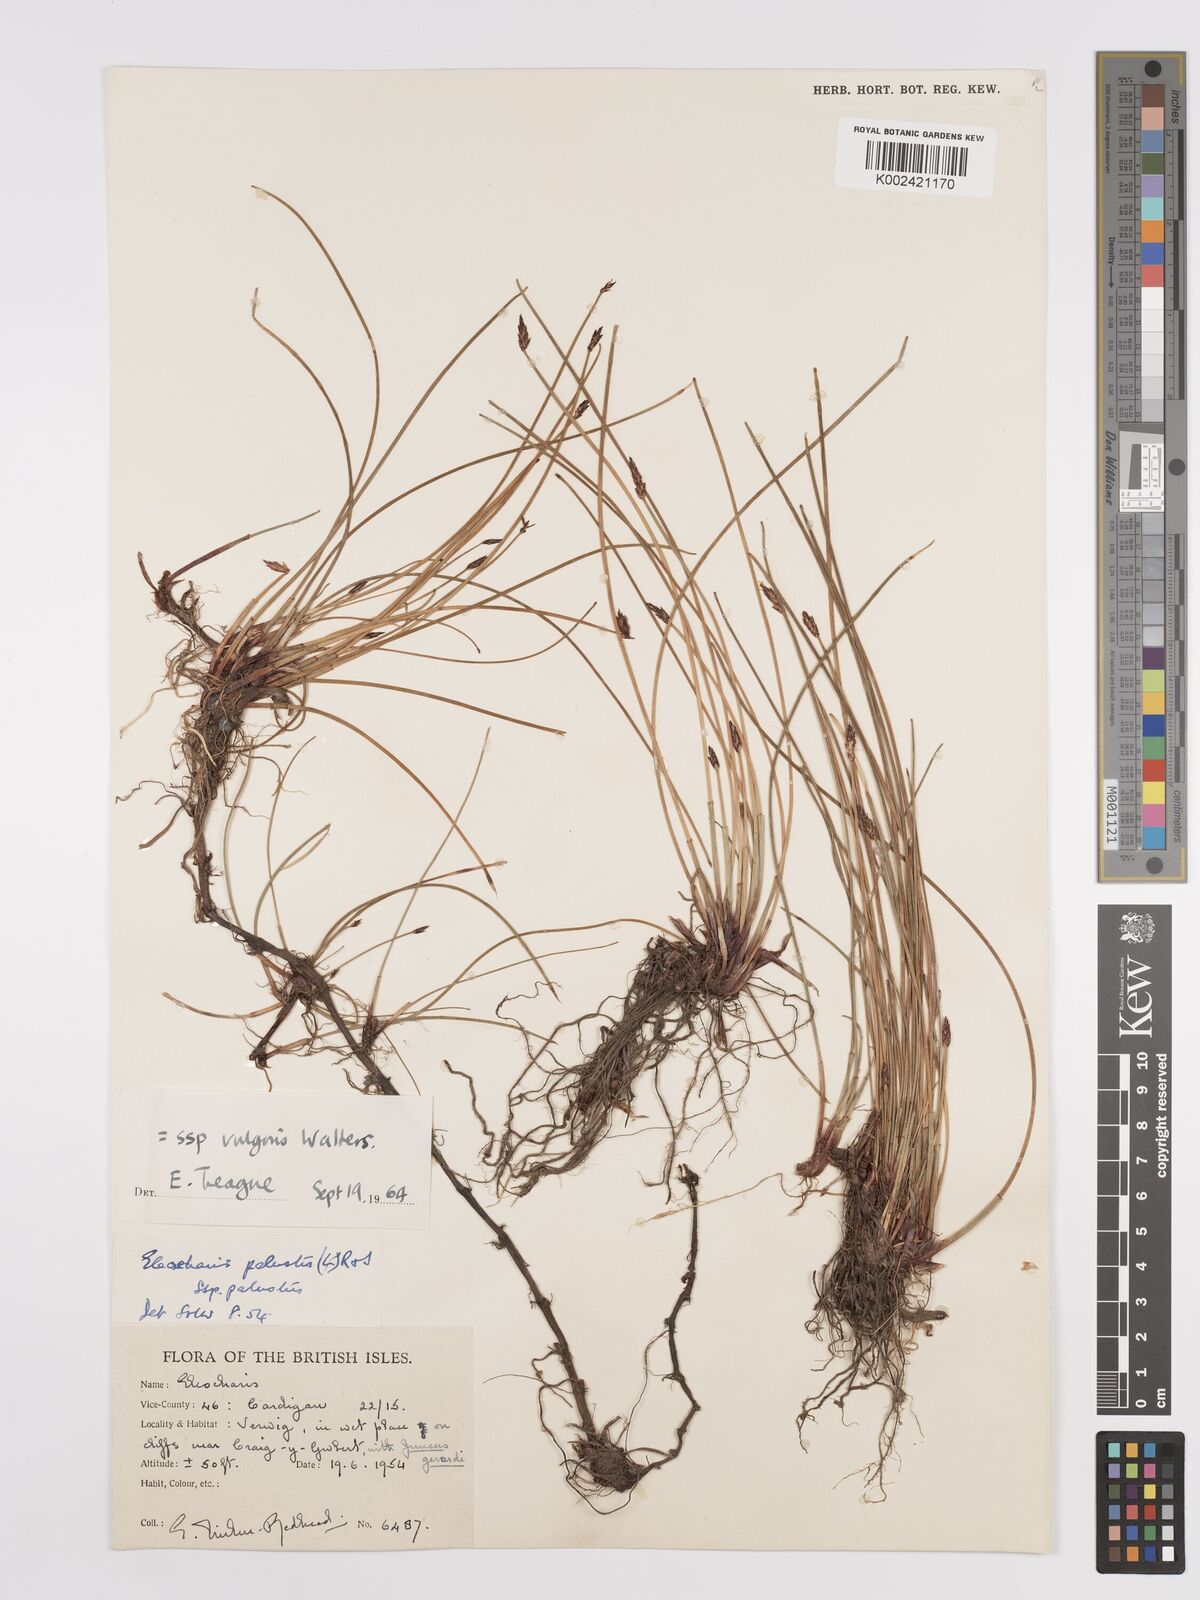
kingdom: Plantae
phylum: Tracheophyta
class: Liliopsida
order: Poales
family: Cyperaceae
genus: Eleocharis
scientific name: Eleocharis palustris
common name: Common spike-rush
